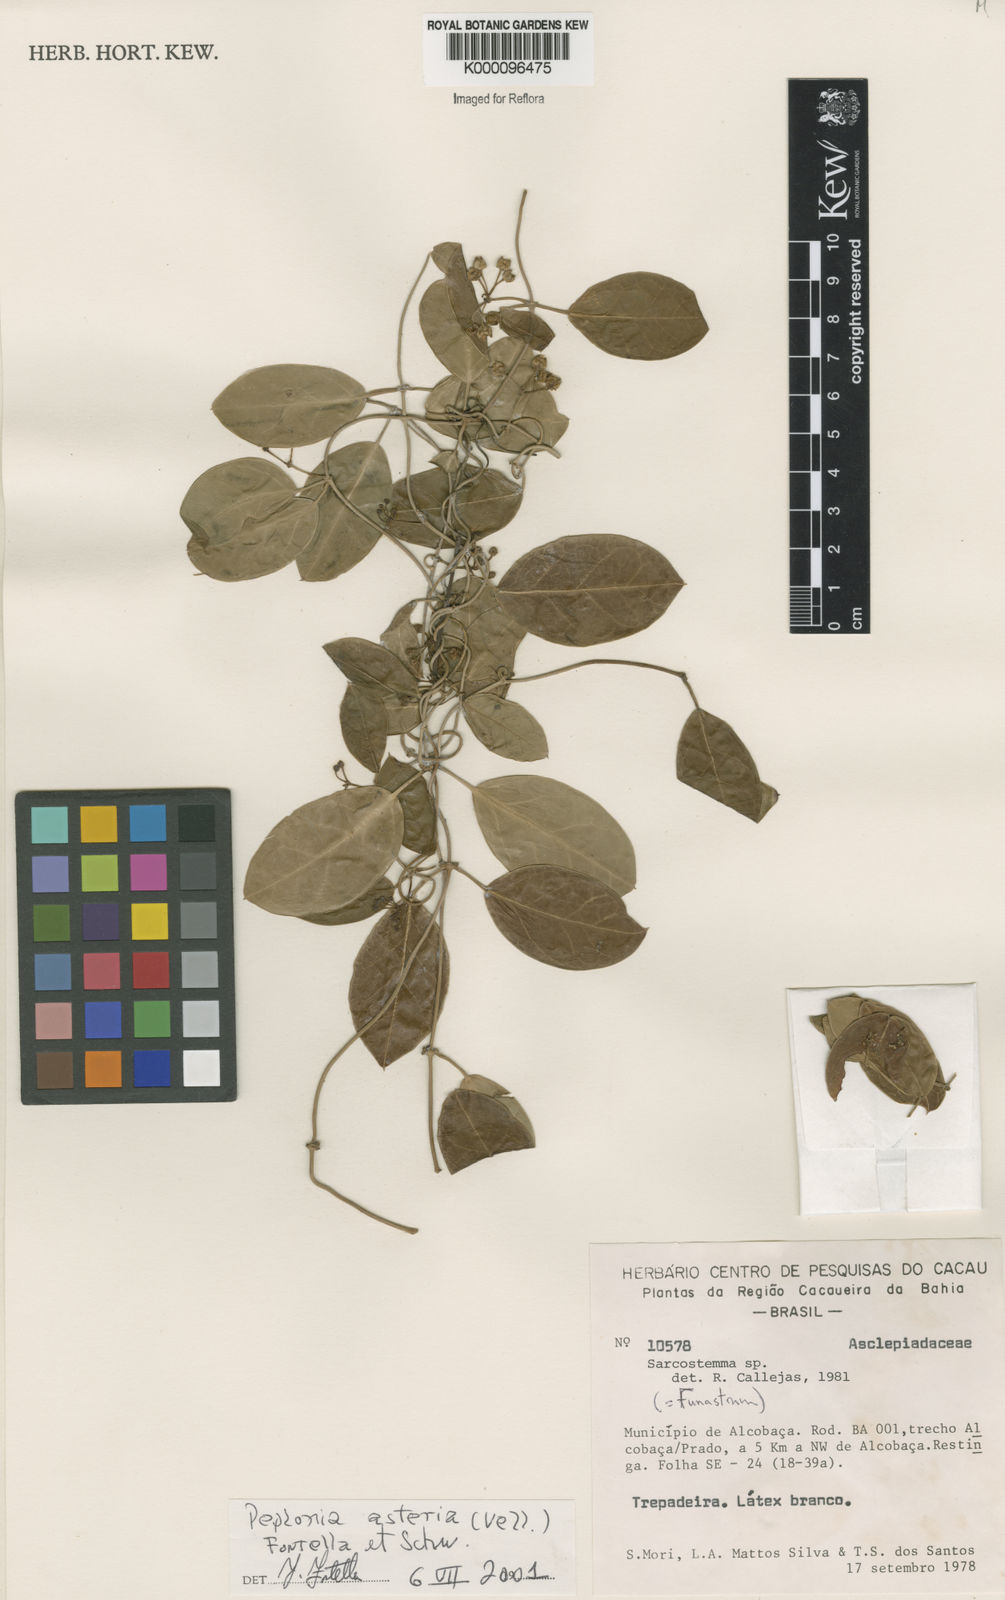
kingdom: Plantae
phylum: Tracheophyta
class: Magnoliopsida
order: Gentianales
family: Apocynaceae
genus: Peplonia
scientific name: Peplonia asteria
